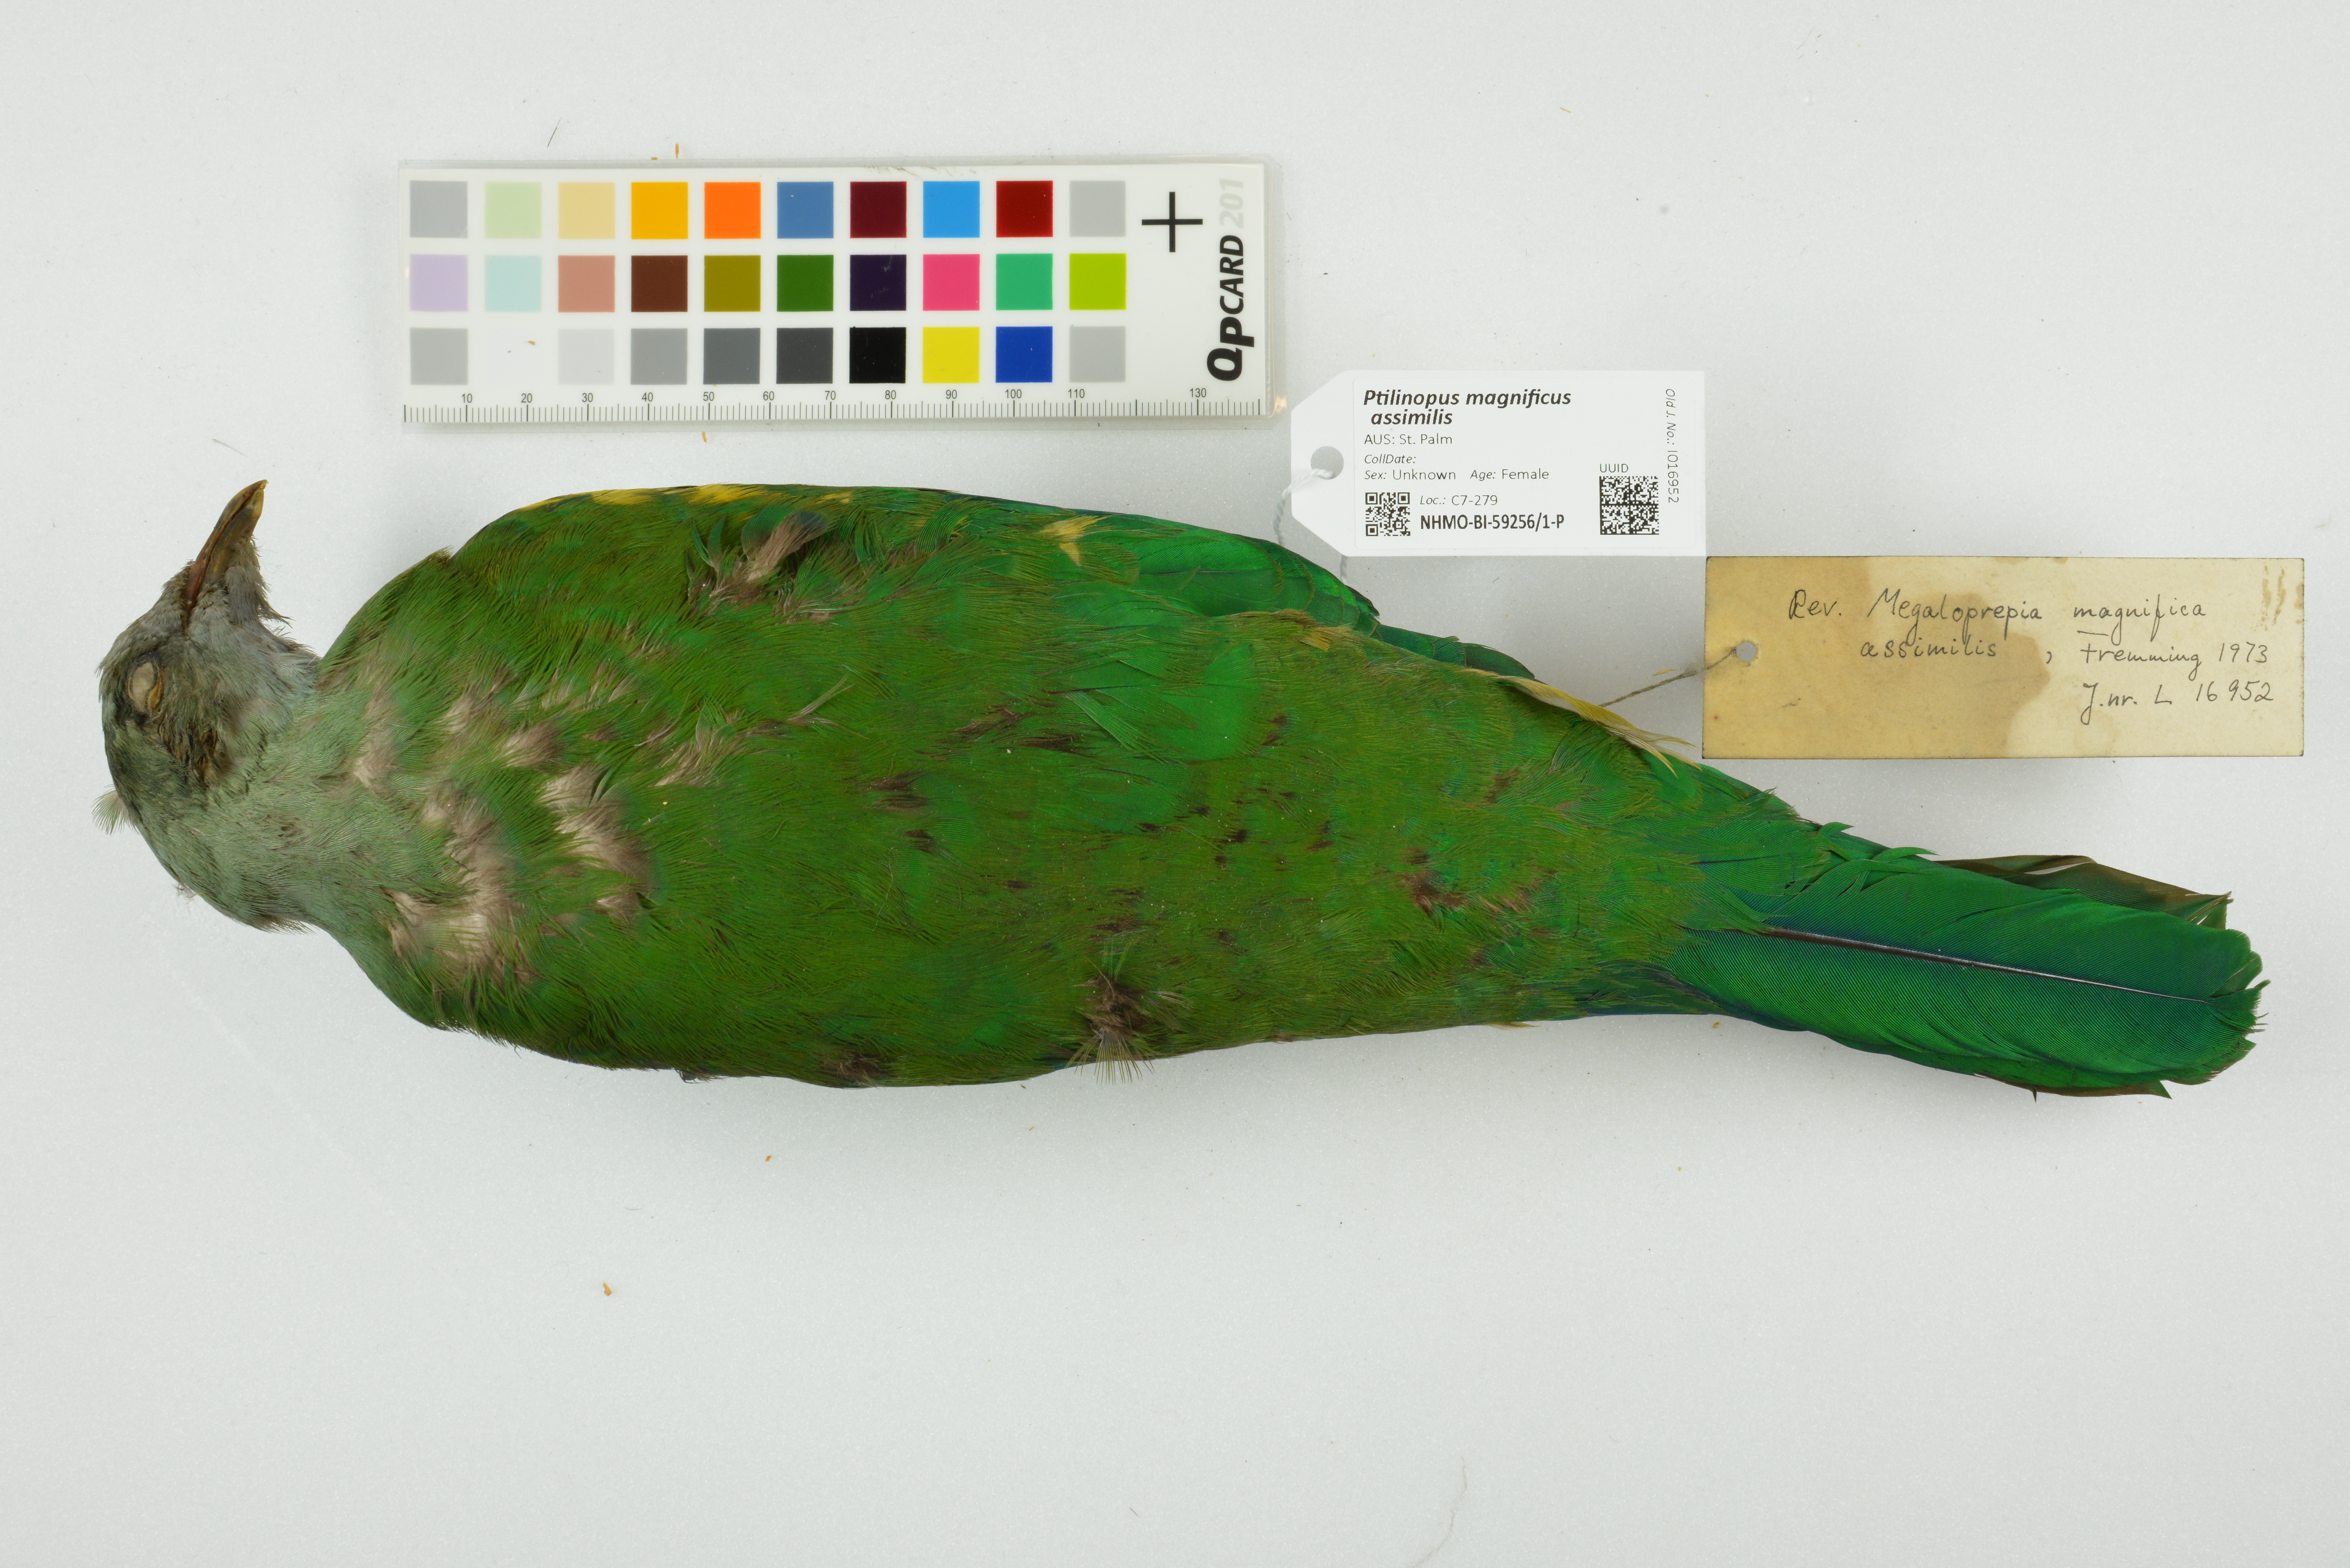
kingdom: Animalia
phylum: Chordata
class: Aves
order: Columbiformes
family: Columbidae
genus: Ptilinopus
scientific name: Ptilinopus magnificus
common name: Wompoo fruit dove
